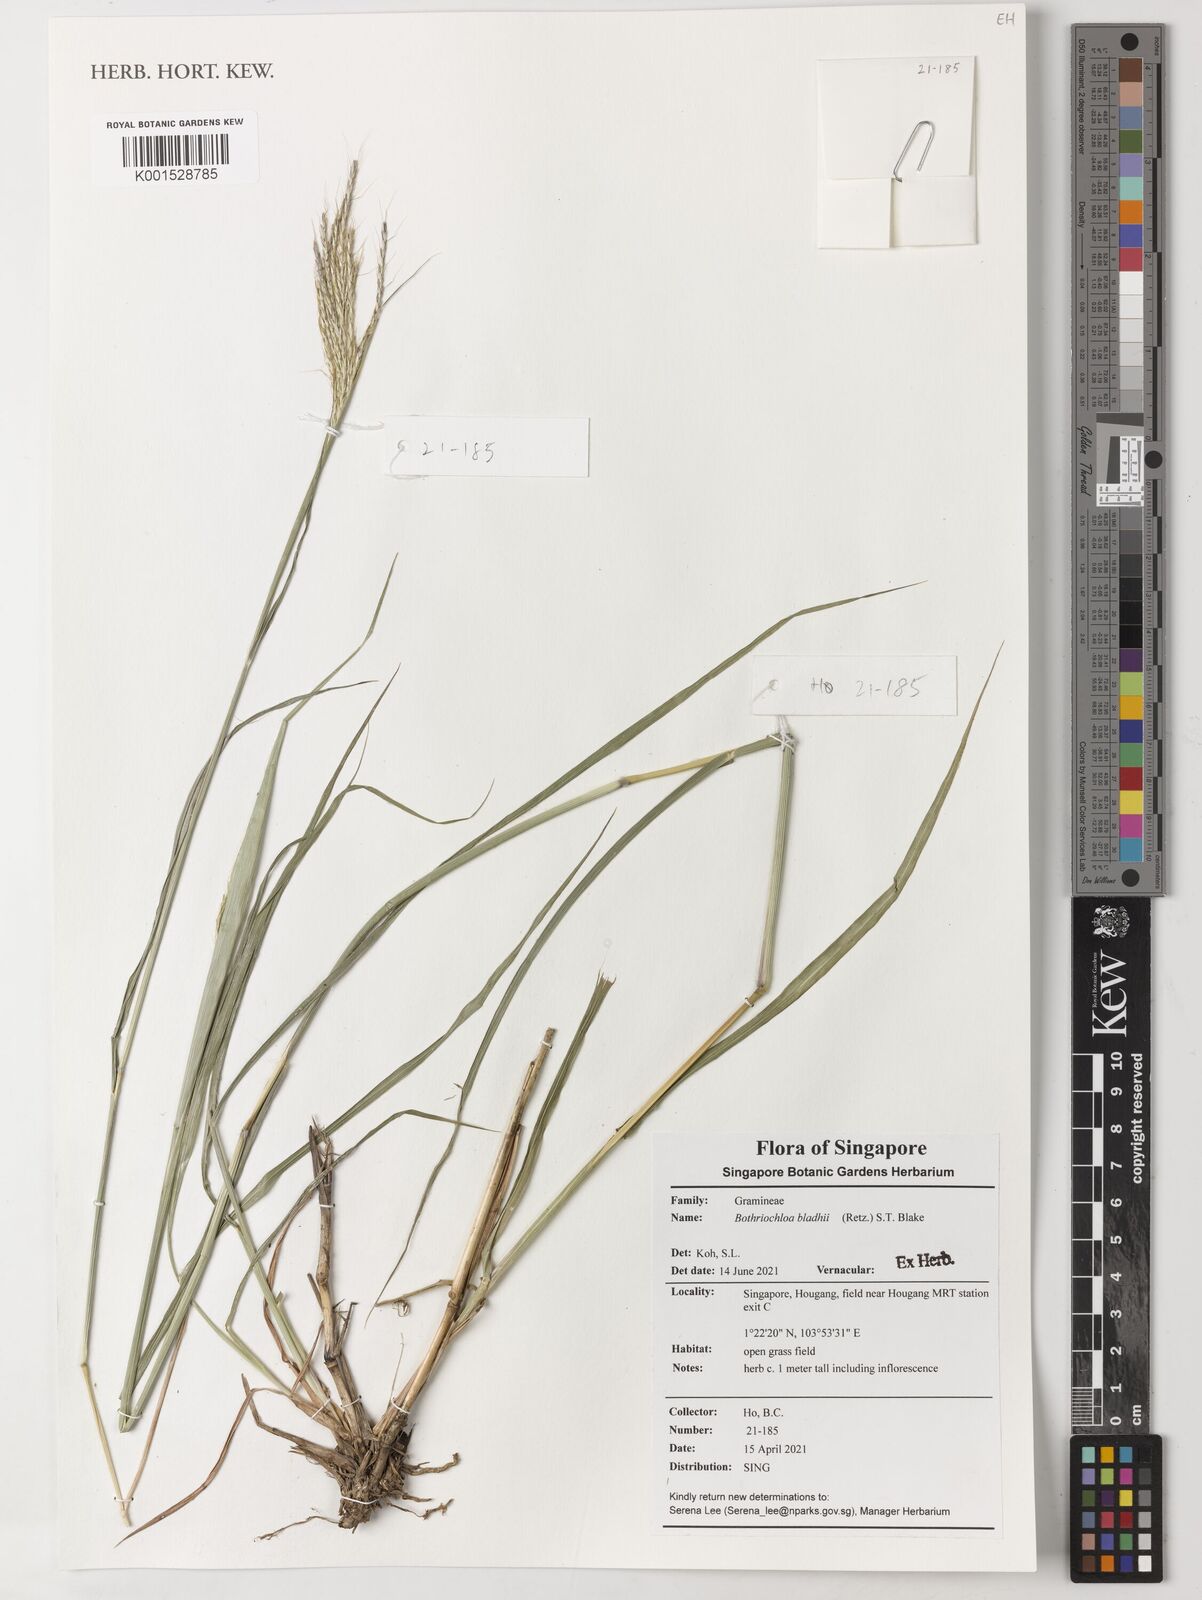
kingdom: Plantae
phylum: Tracheophyta
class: Liliopsida
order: Poales
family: Poaceae
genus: Bothriochloa
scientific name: Bothriochloa bladhii
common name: Caucasian bluestem
